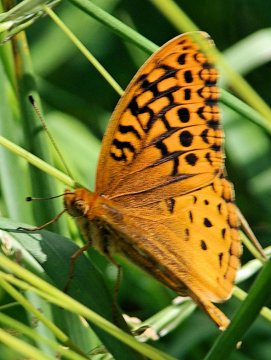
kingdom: Animalia
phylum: Arthropoda
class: Insecta
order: Lepidoptera
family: Nymphalidae
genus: Speyeria
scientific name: Speyeria cybele
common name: Great Spangled Fritillary
